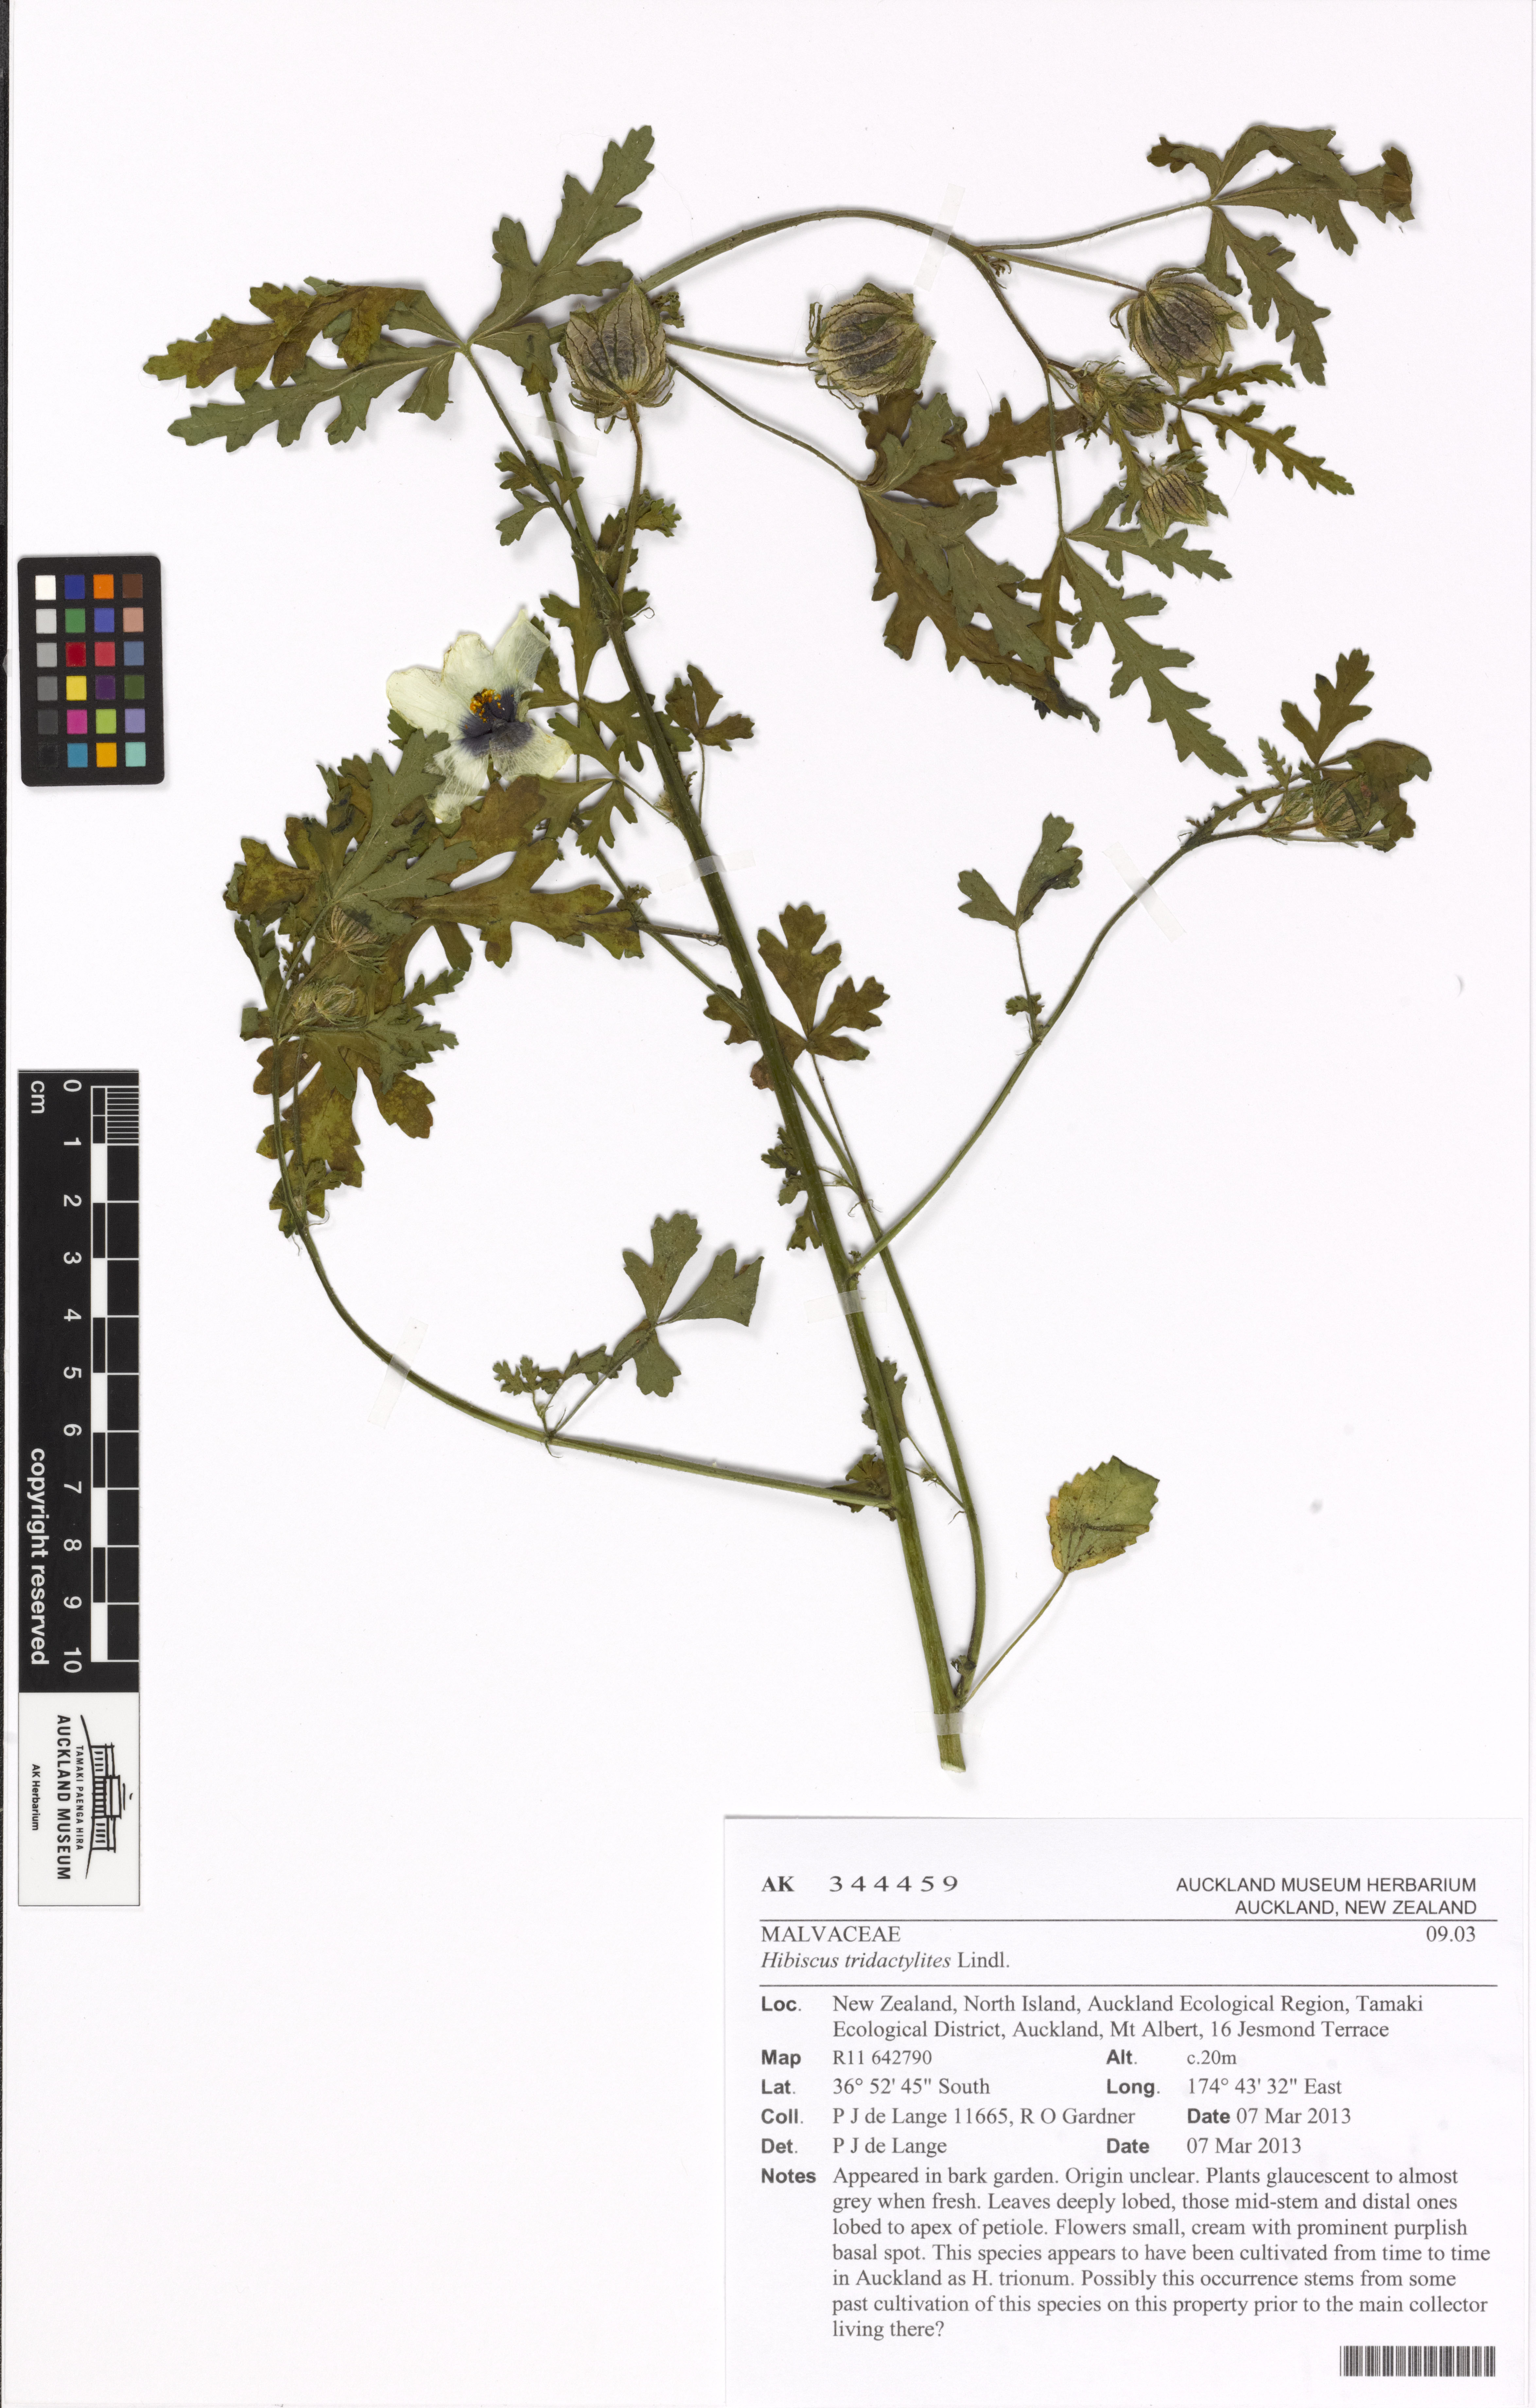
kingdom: Plantae
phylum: Tracheophyta
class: Magnoliopsida
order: Malvales
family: Malvaceae
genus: Hibiscus
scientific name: Hibiscus tridactylites
